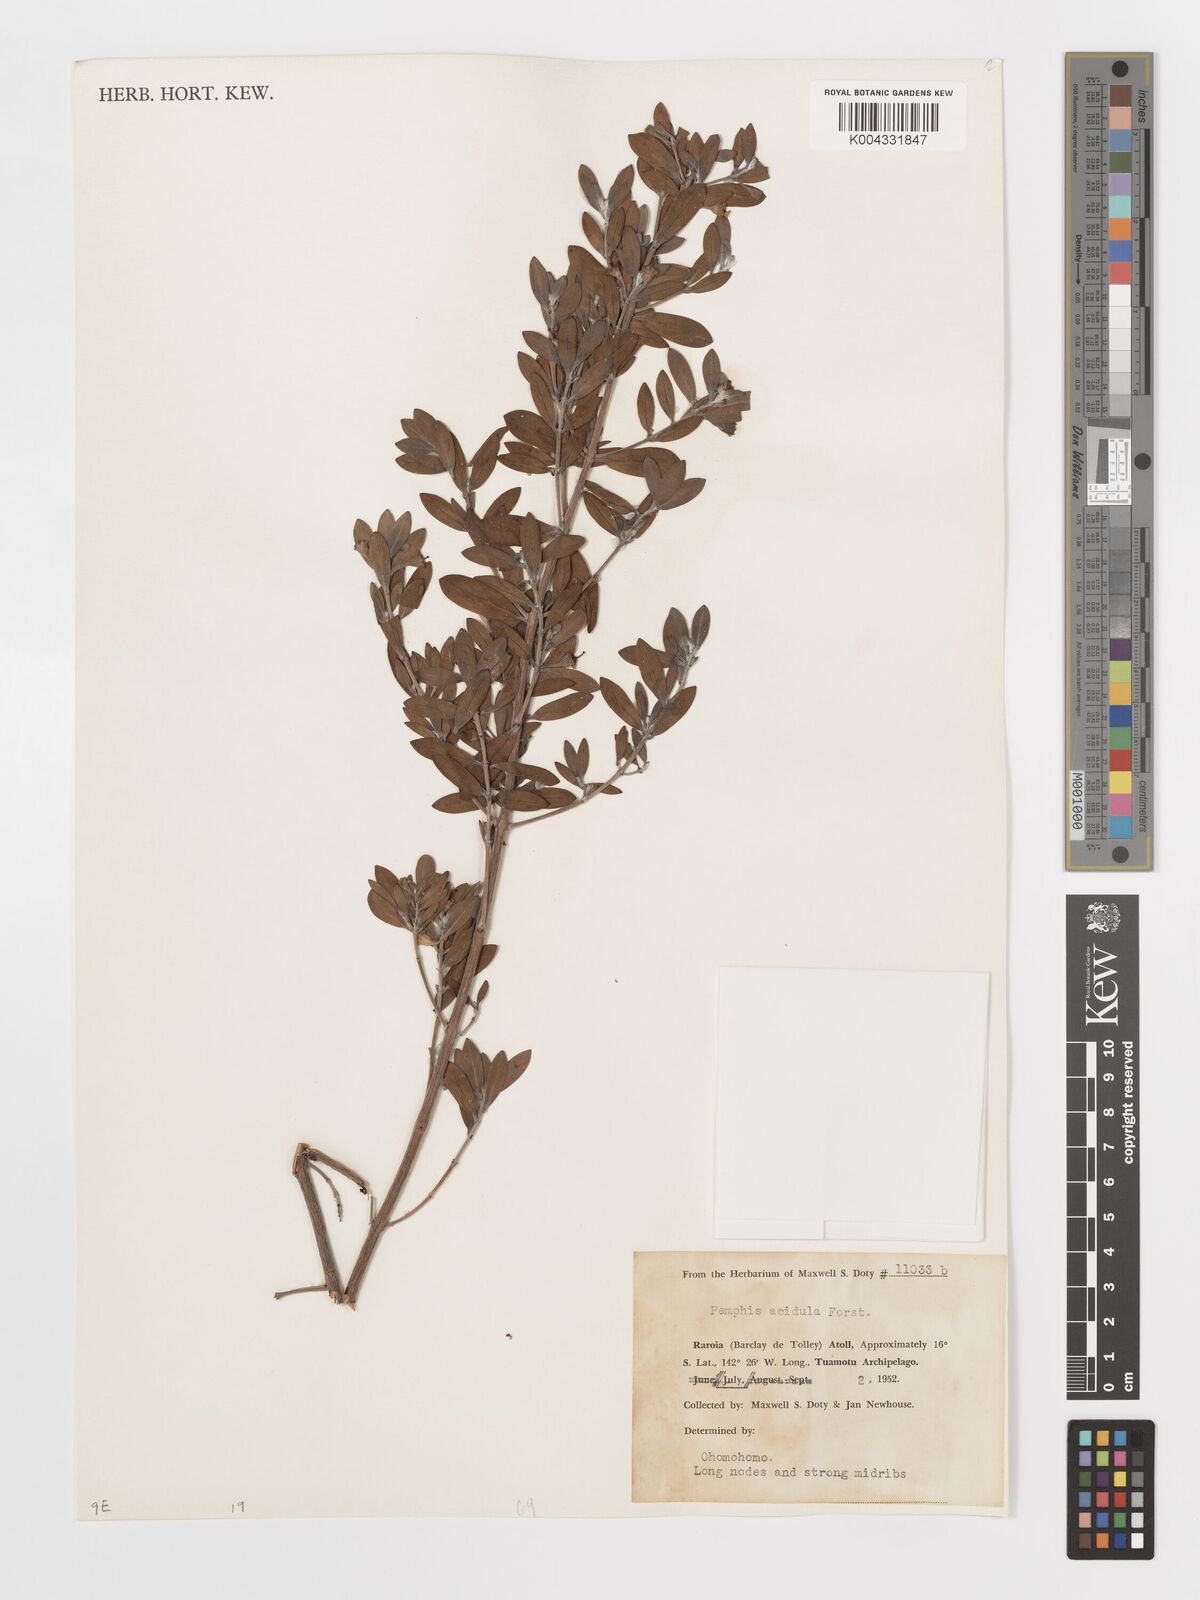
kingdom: Plantae
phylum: Tracheophyta
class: Magnoliopsida
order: Myrtales
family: Lythraceae
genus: Pemphis
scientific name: Pemphis acidula
